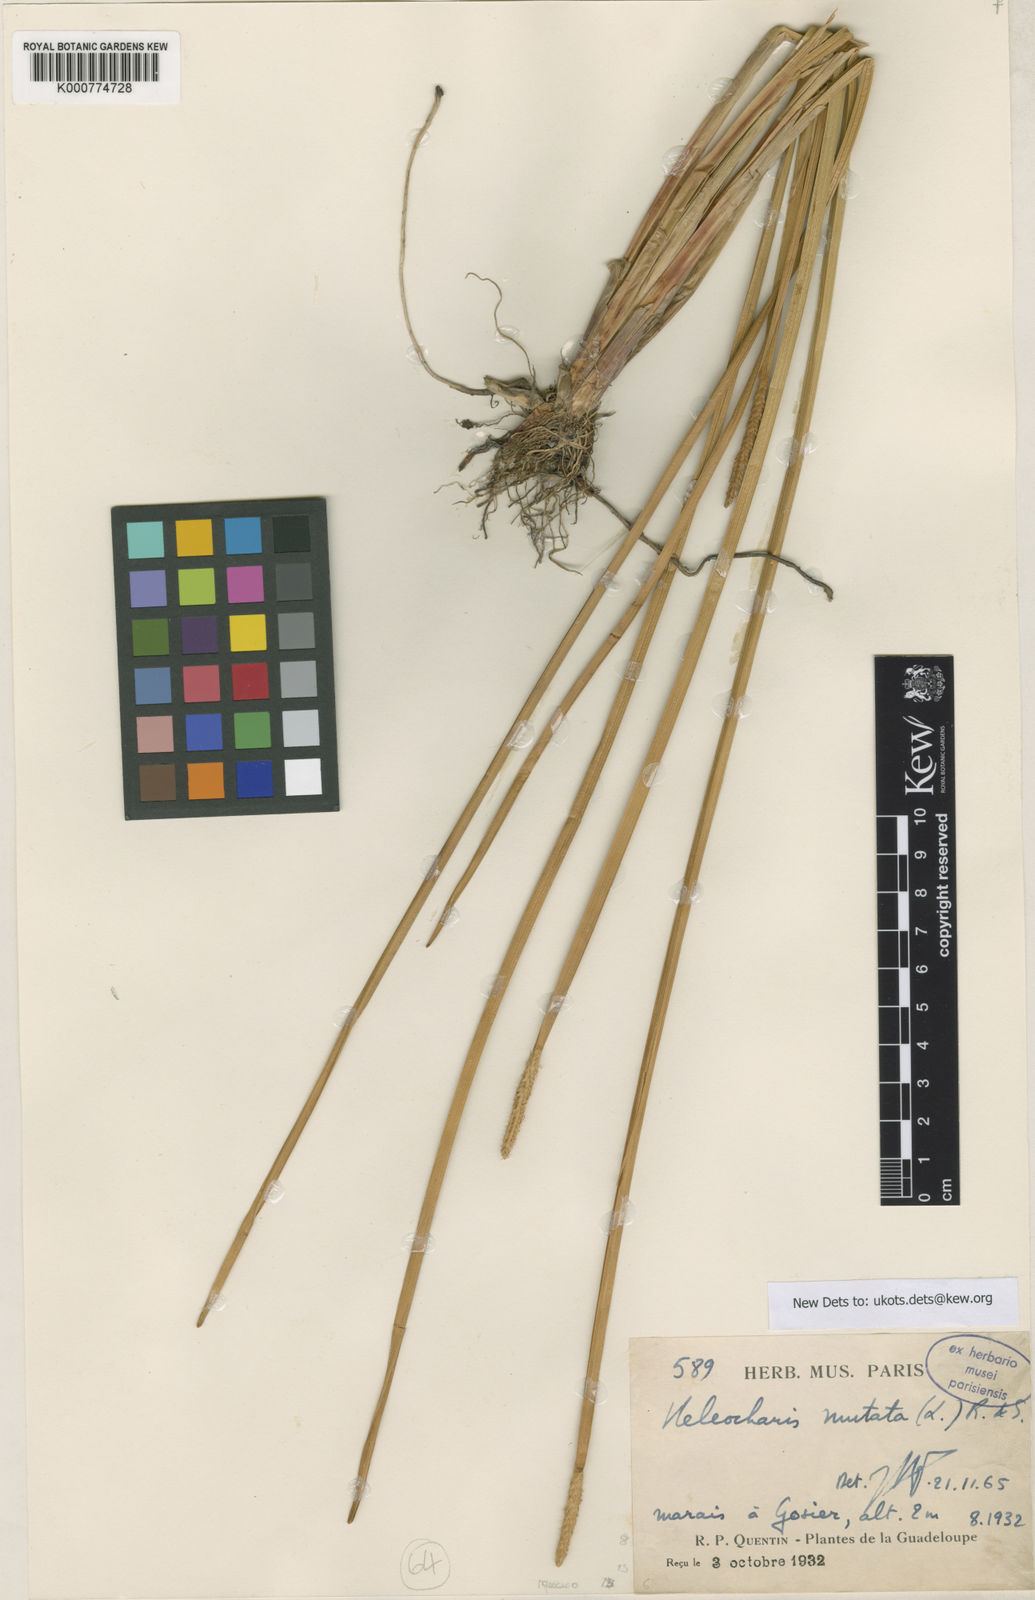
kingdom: Plantae
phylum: Tracheophyta
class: Liliopsida
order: Poales
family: Cyperaceae
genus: Eleocharis
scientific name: Eleocharis mutata
